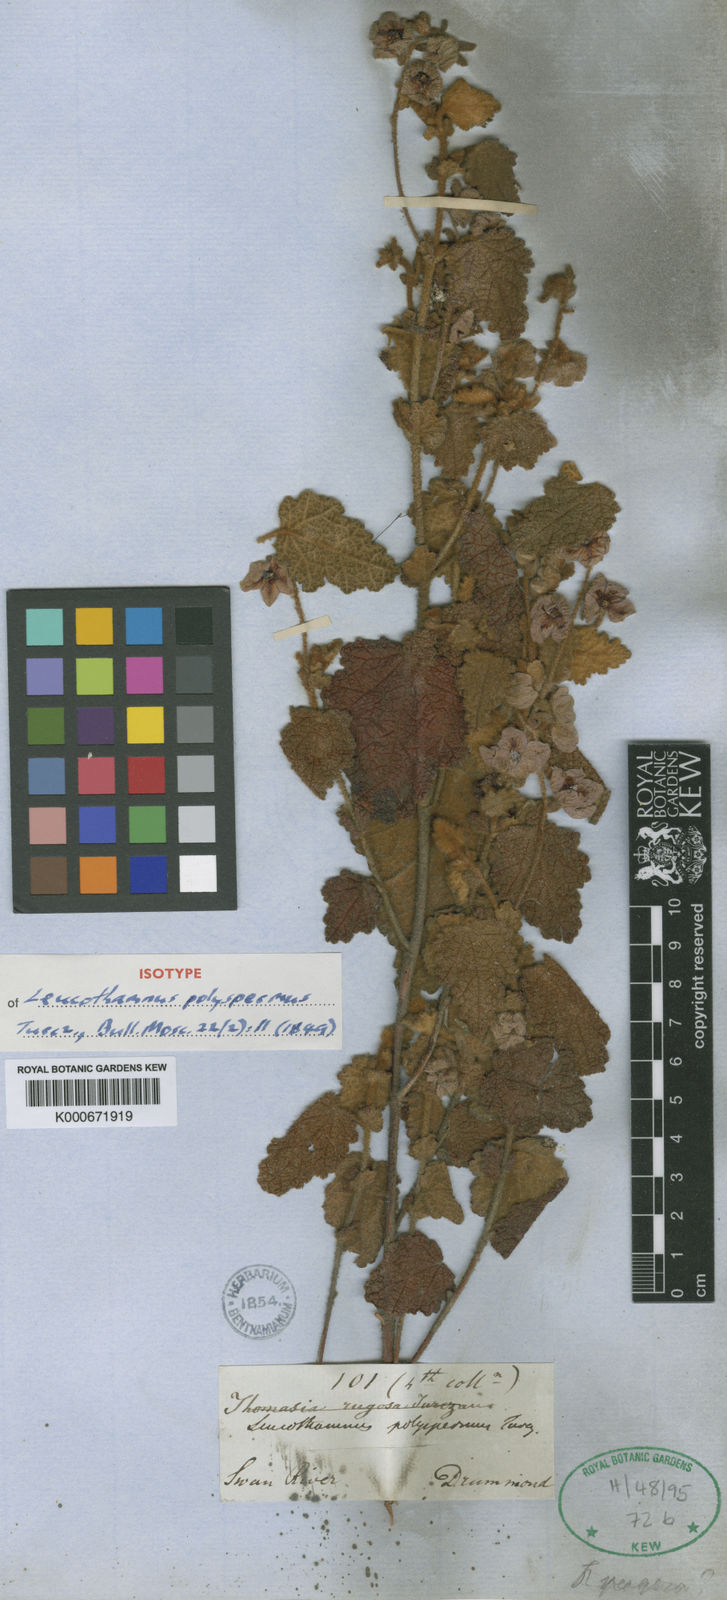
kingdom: Plantae
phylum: Tracheophyta
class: Magnoliopsida
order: Malvales
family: Malvaceae
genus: Thomasia
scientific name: Thomasia rugosa
